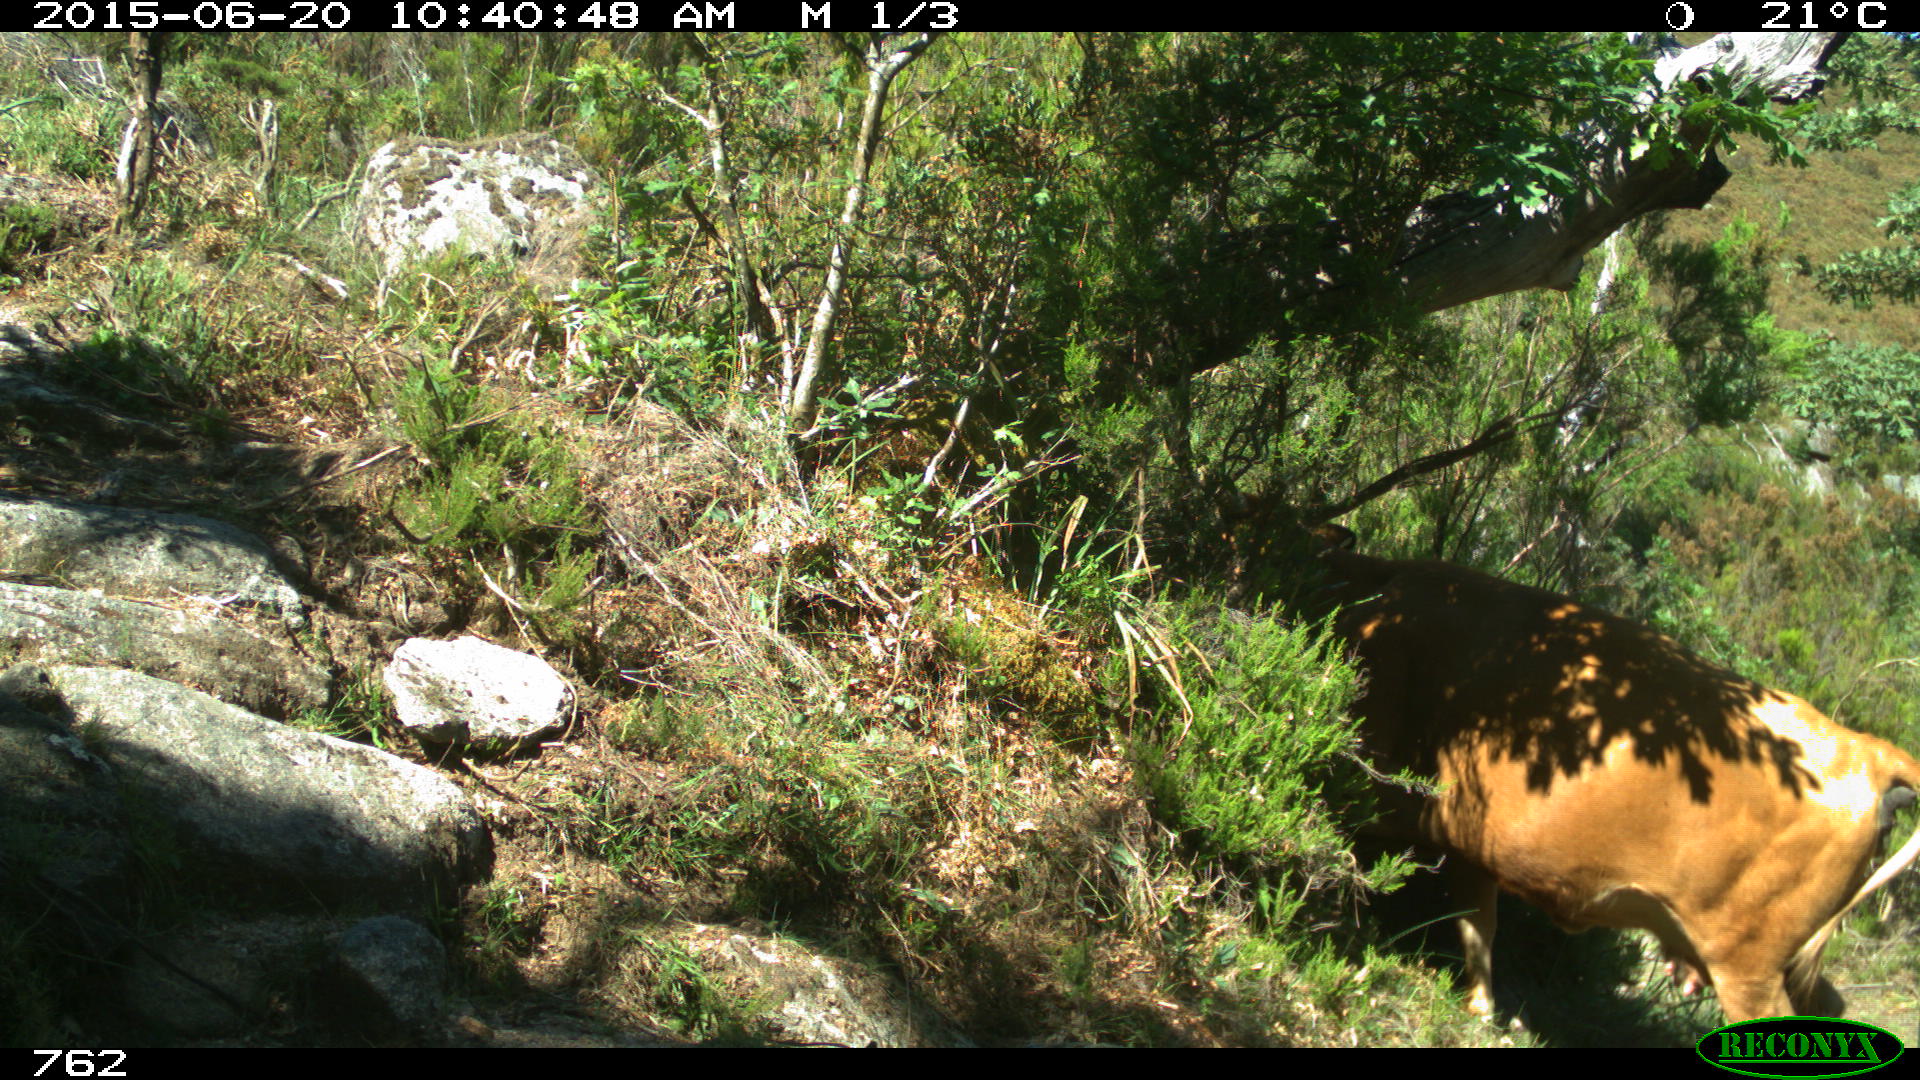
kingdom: Animalia
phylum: Chordata
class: Mammalia
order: Artiodactyla
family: Bovidae
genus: Bos
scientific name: Bos taurus
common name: Domesticated cattle
